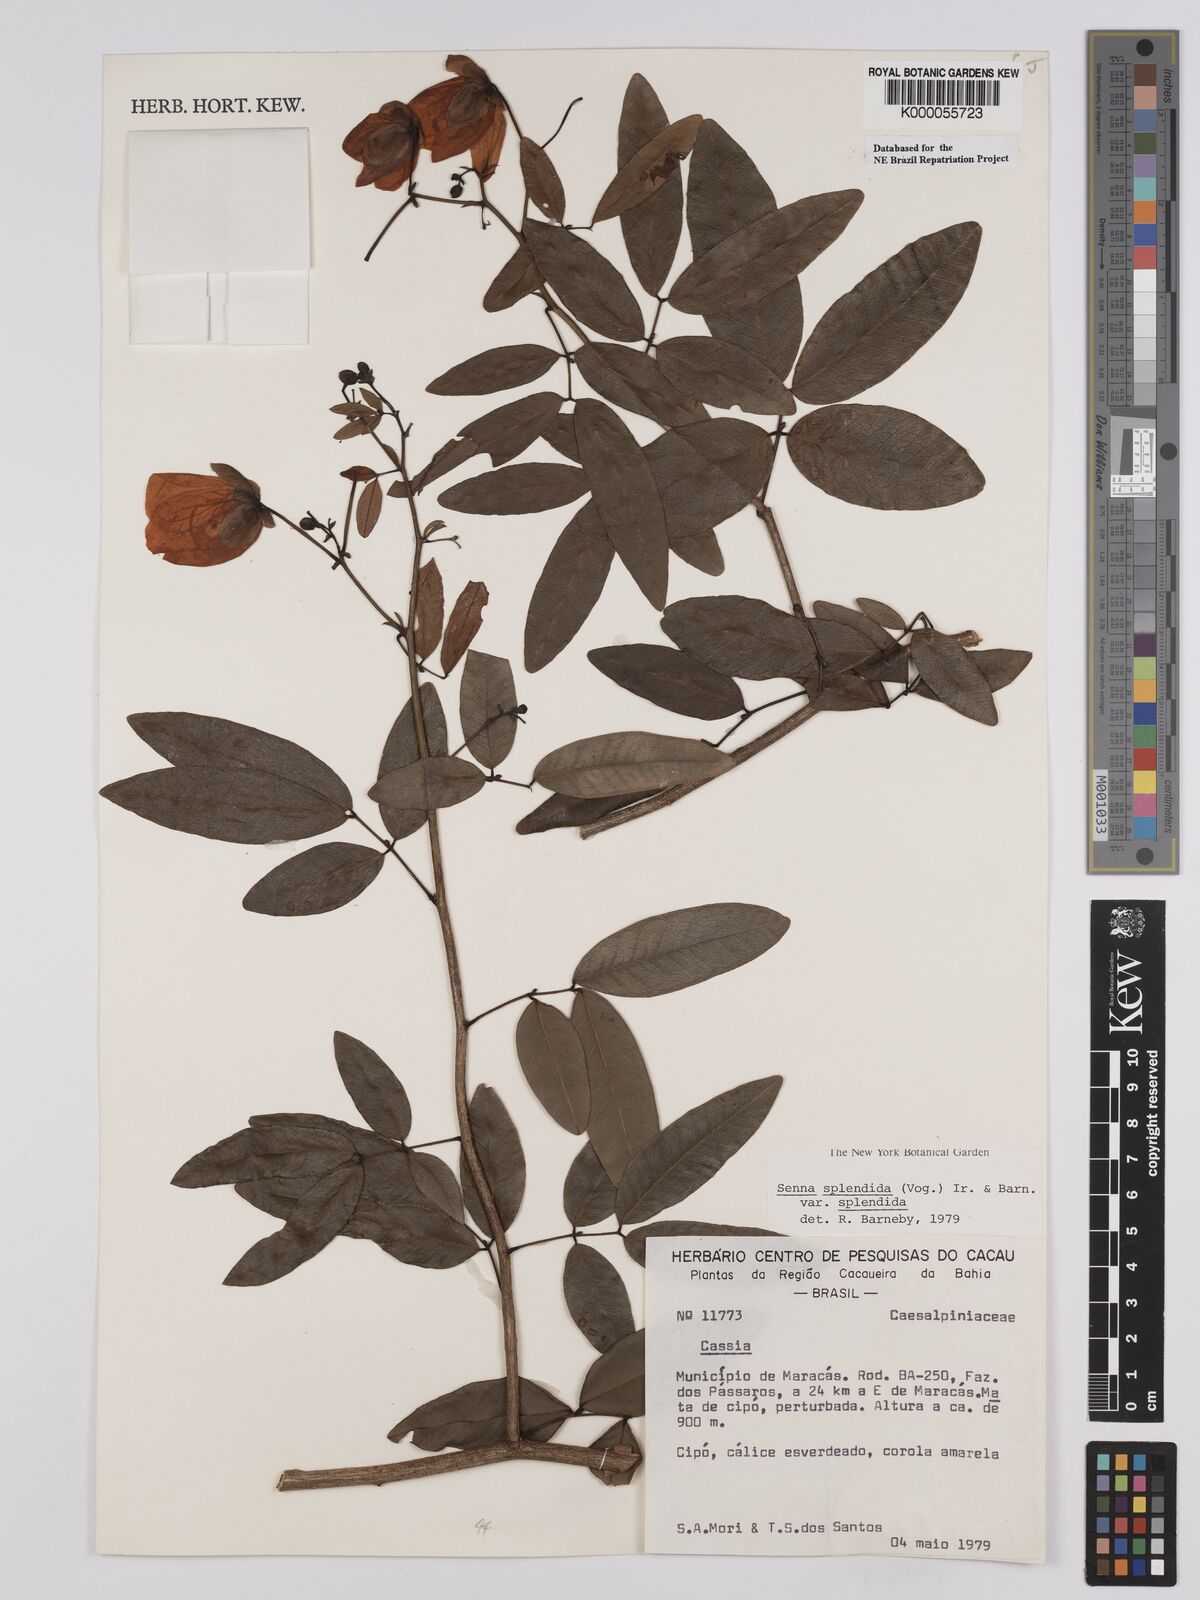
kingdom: Plantae
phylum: Tracheophyta
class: Magnoliopsida
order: Fabales
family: Fabaceae
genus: Senna
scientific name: Senna splendida
